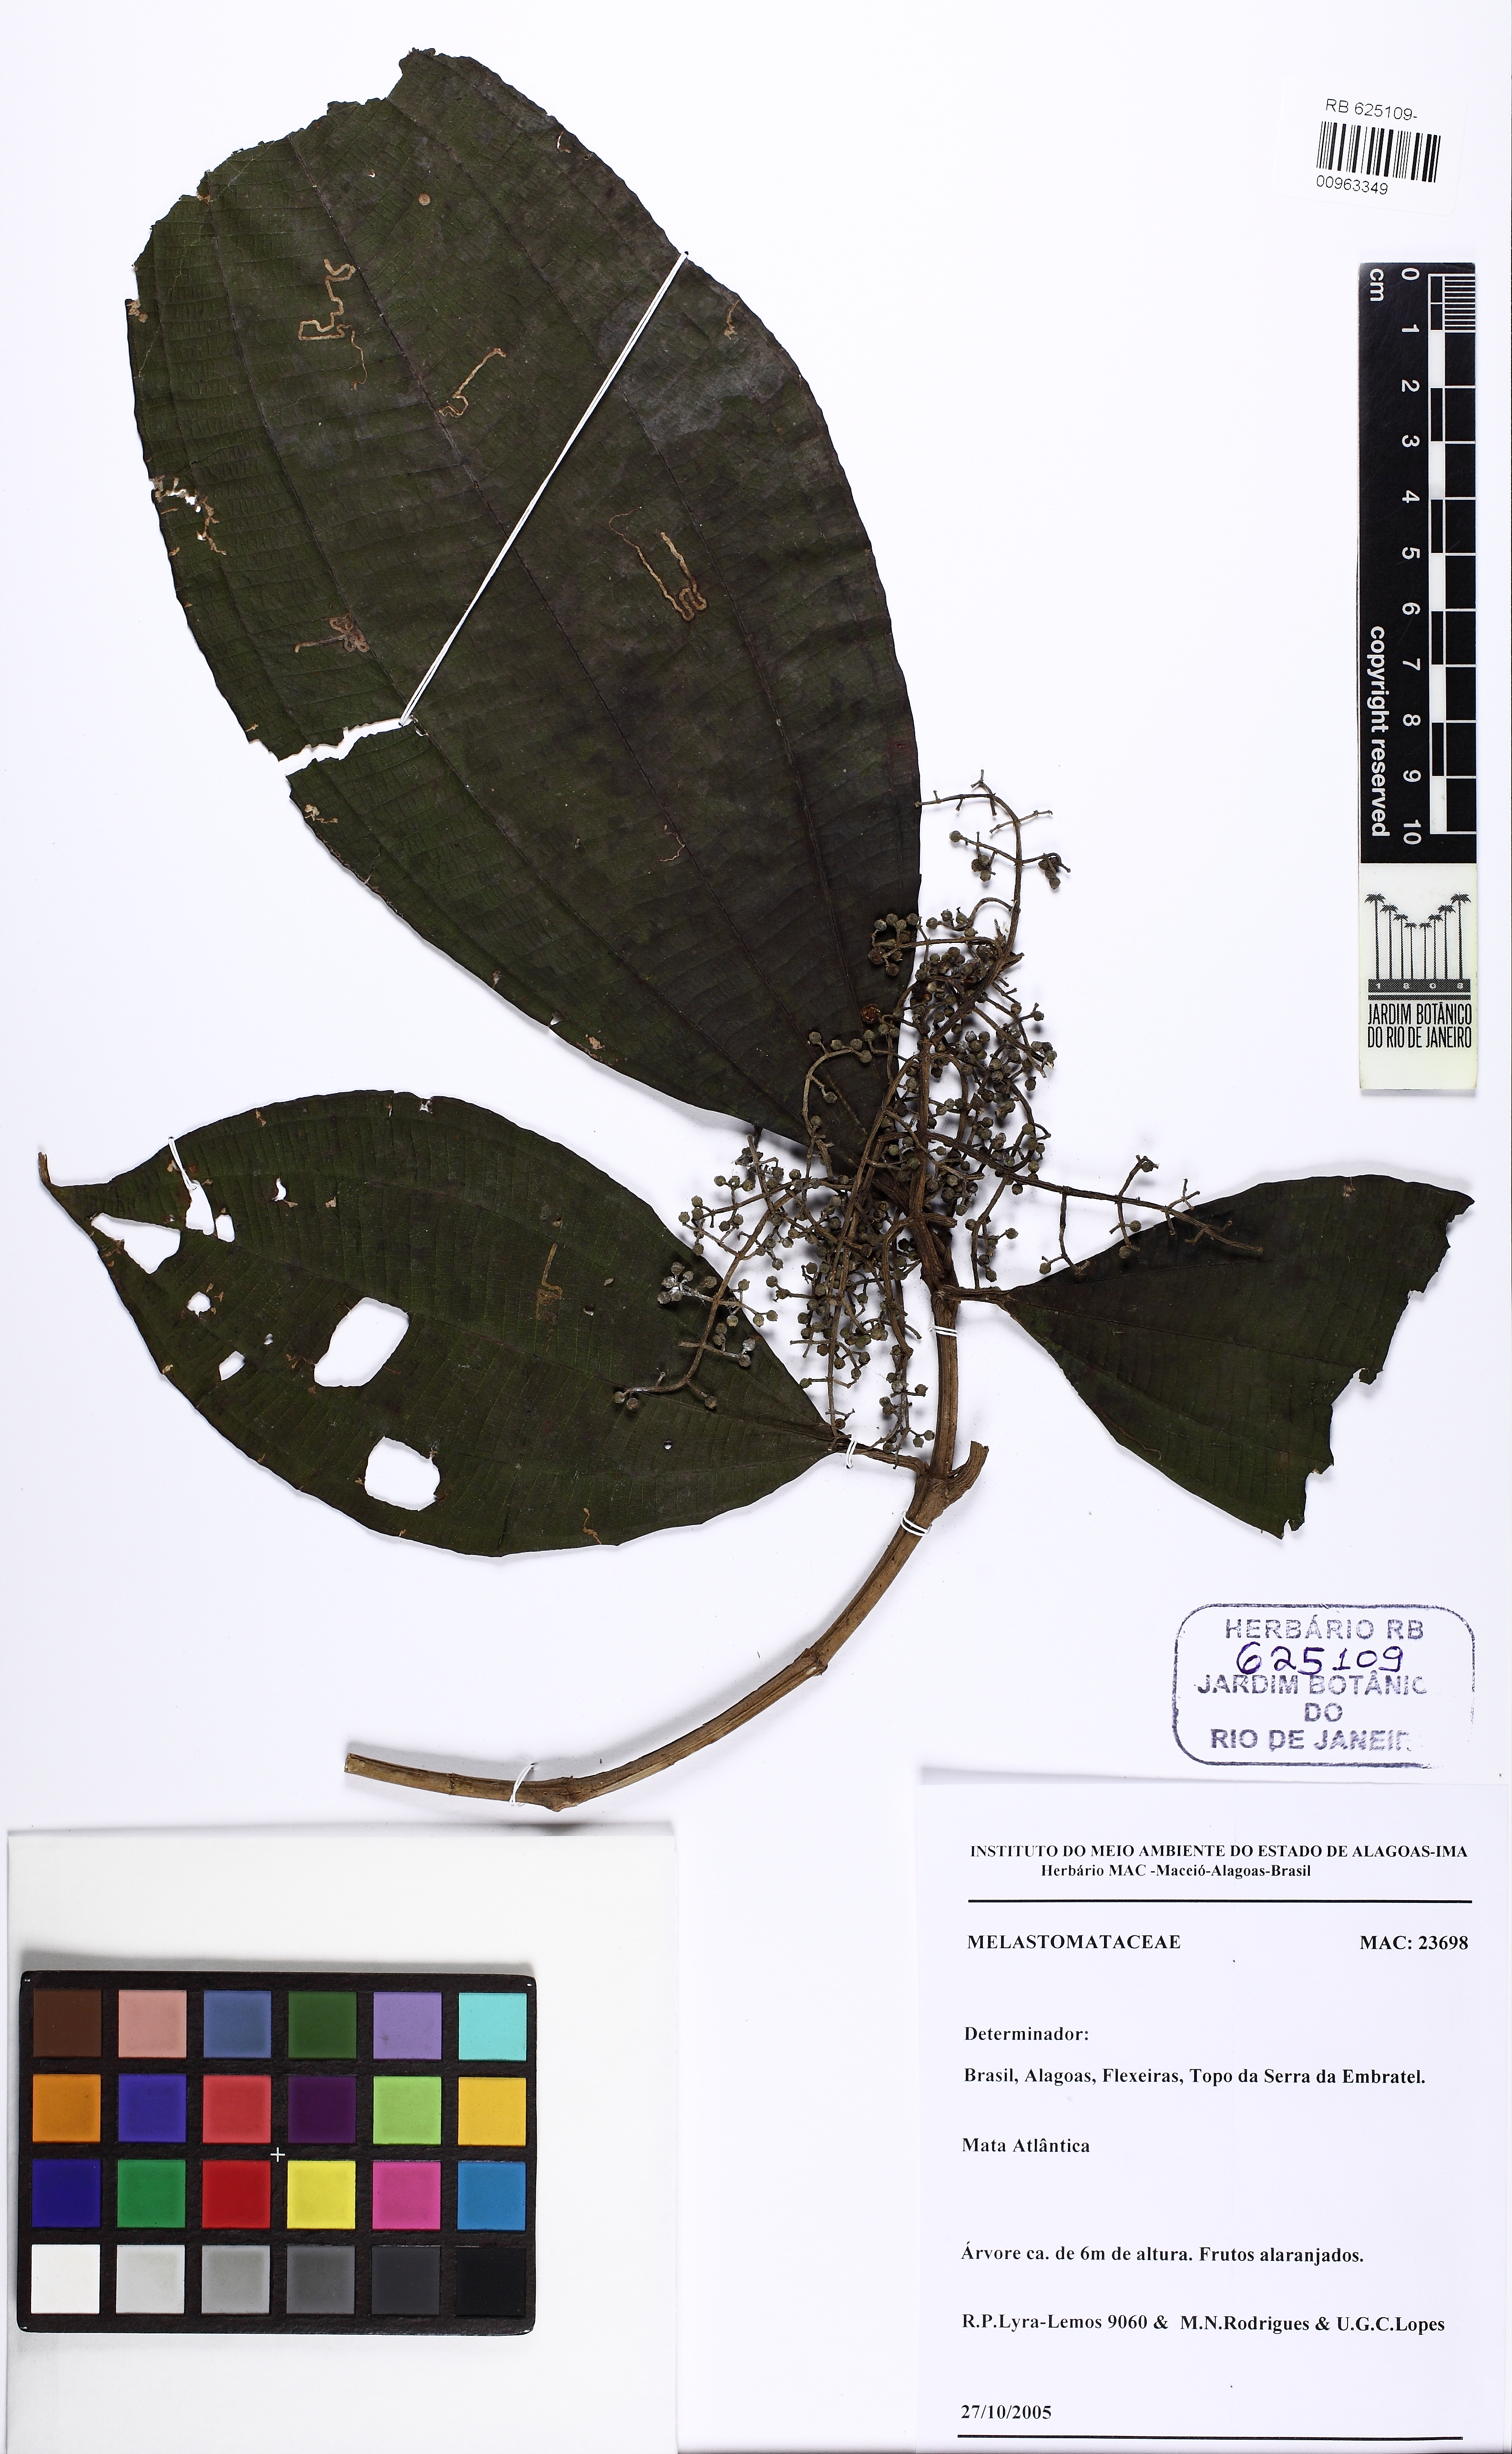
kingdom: Plantae
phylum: Tracheophyta
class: Magnoliopsida
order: Myrtales
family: Melastomataceae
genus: Miconia
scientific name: Miconia affinis
